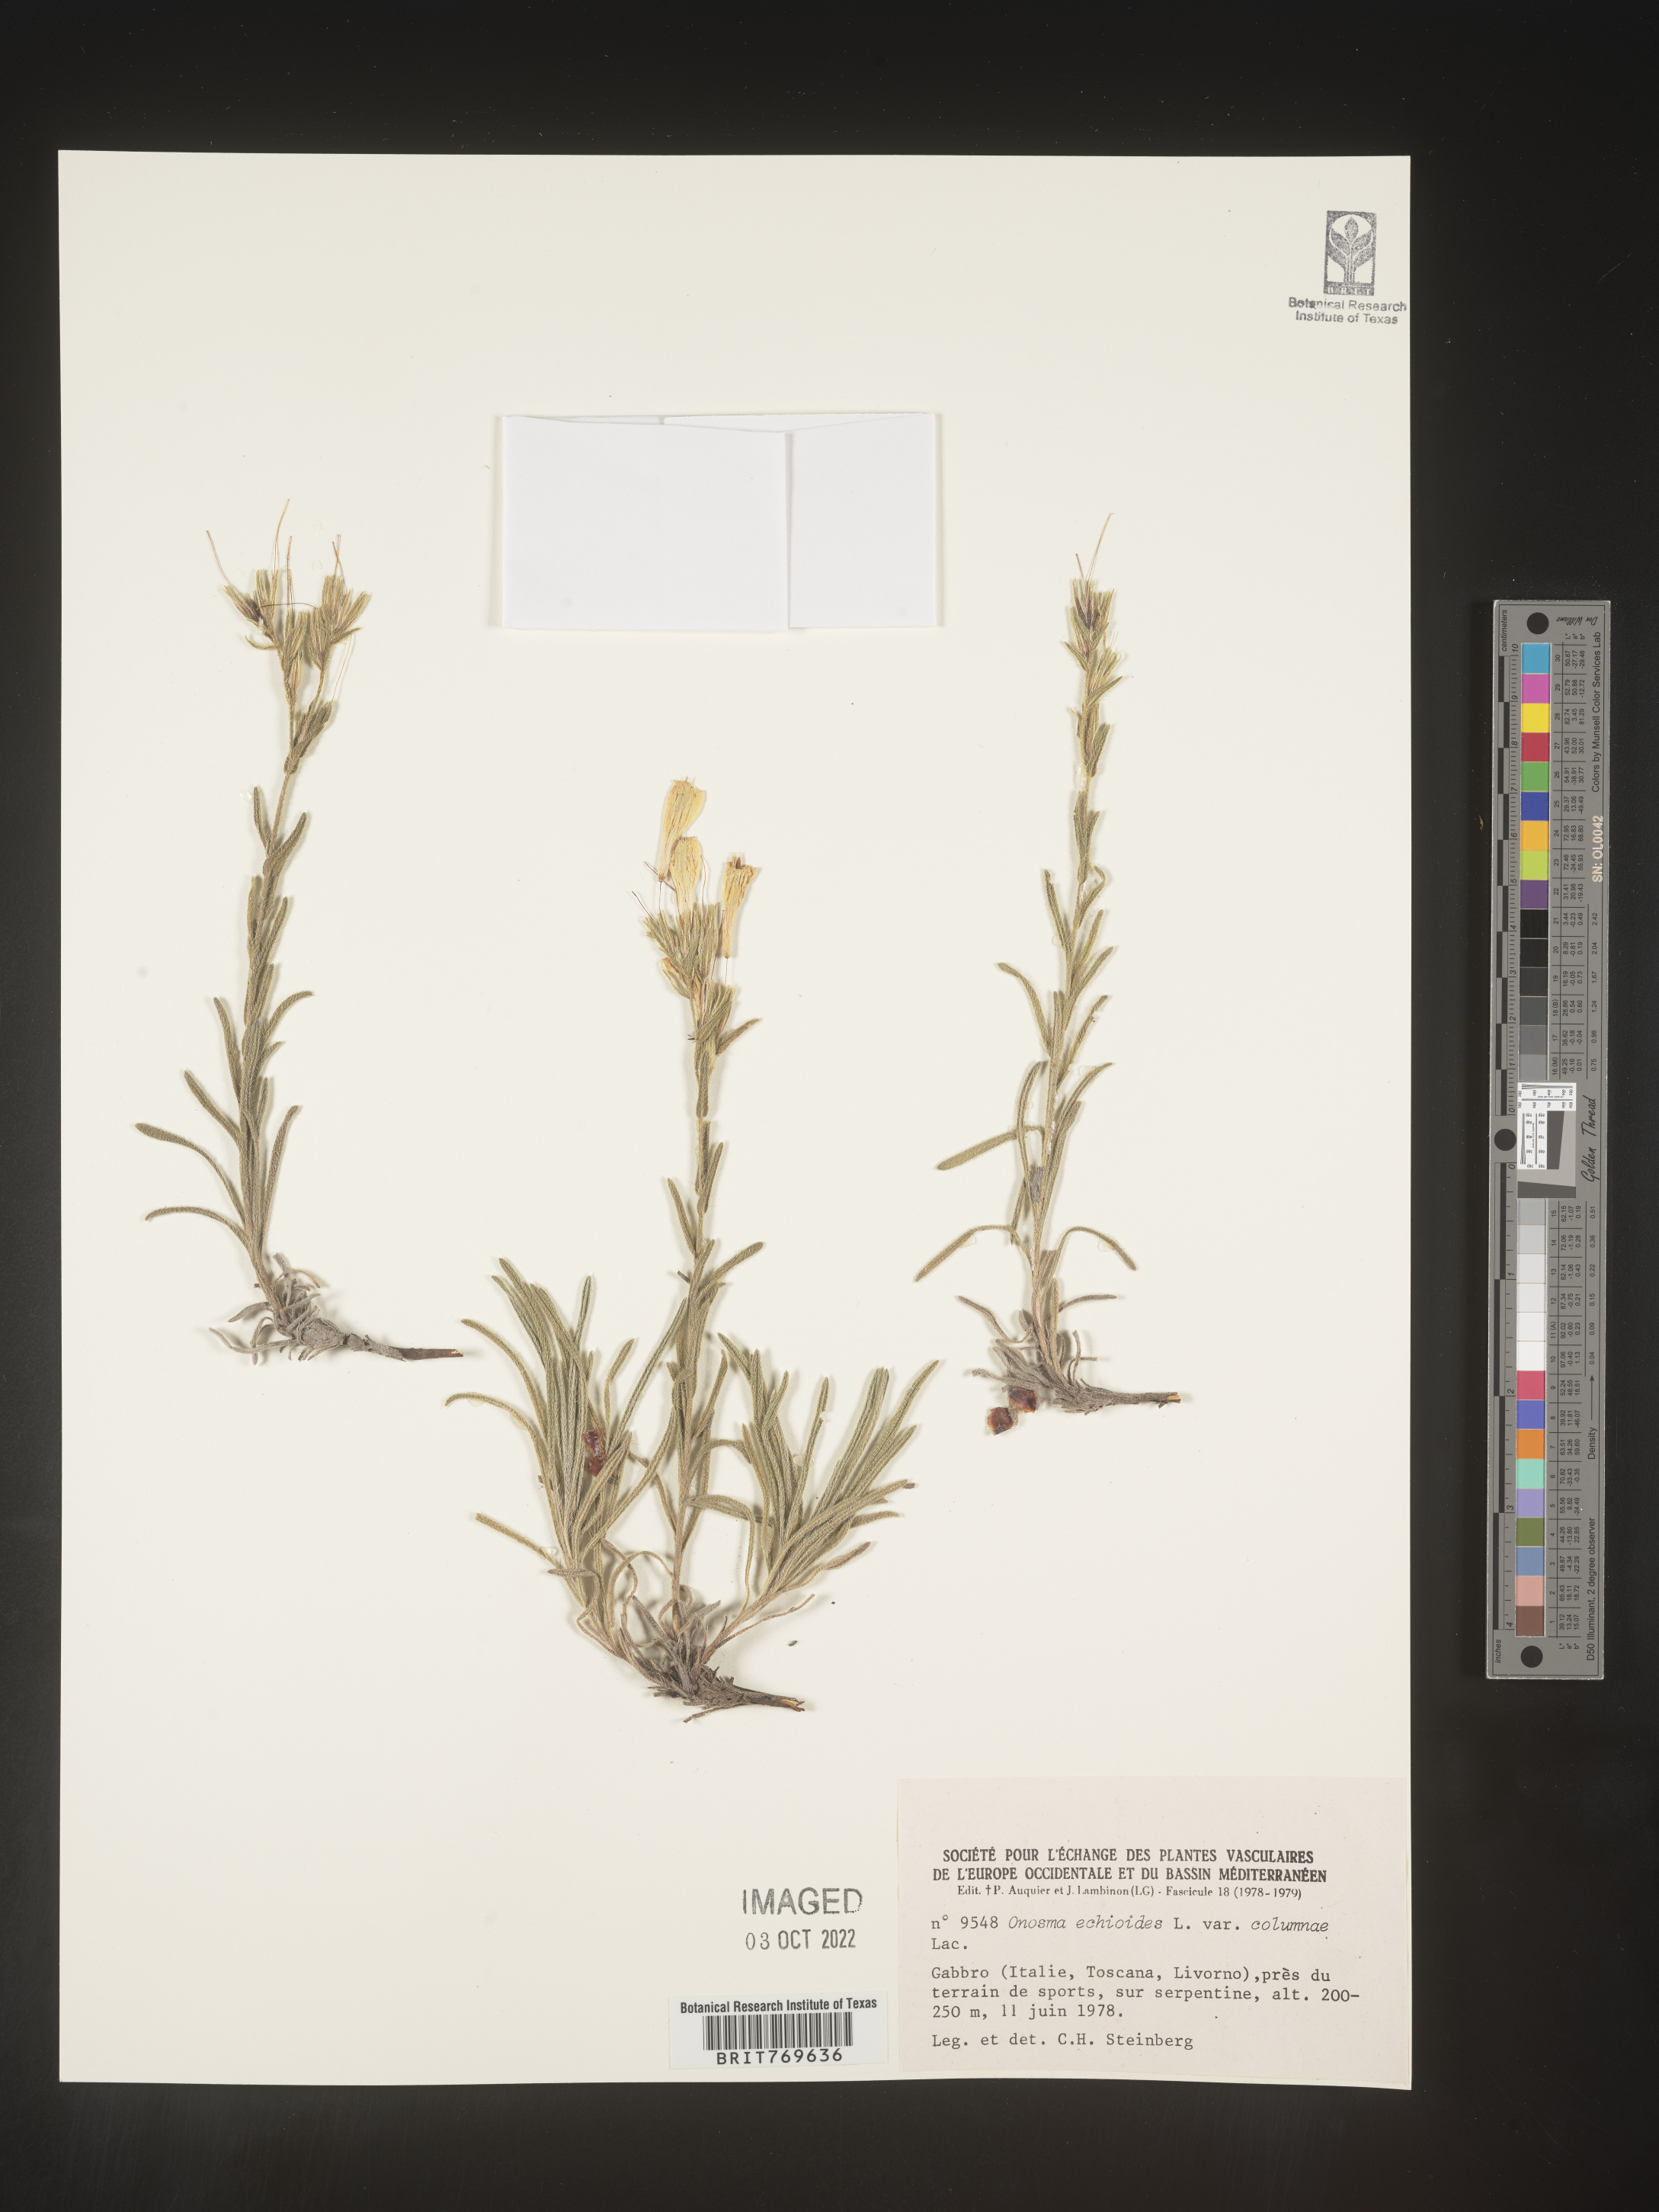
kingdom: Plantae
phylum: Tracheophyta
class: Magnoliopsida
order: Boraginales
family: Boraginaceae
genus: Onosma
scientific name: Onosma
